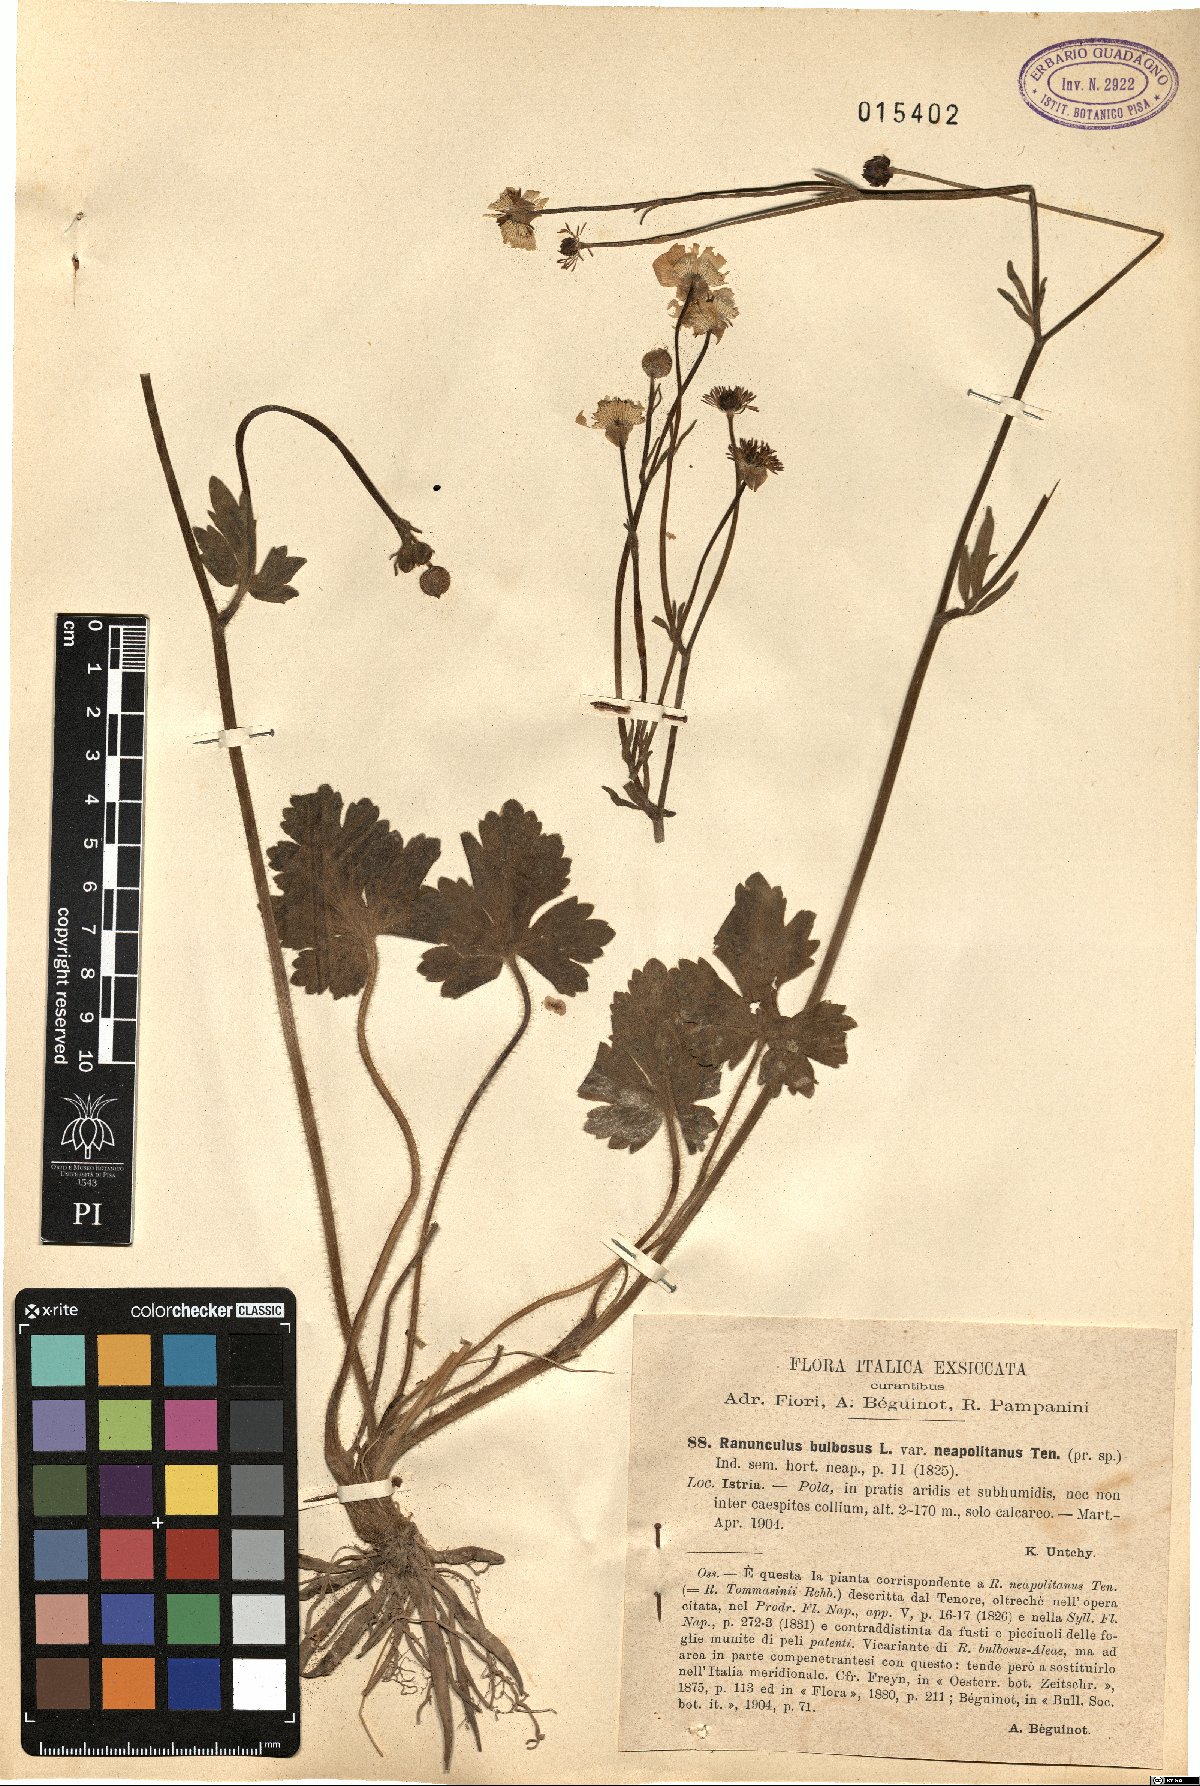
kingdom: Plantae
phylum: Tracheophyta
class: Magnoliopsida
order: Ranunculales
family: Ranunculaceae
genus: Ranunculus
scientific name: Ranunculus neapolitanus
